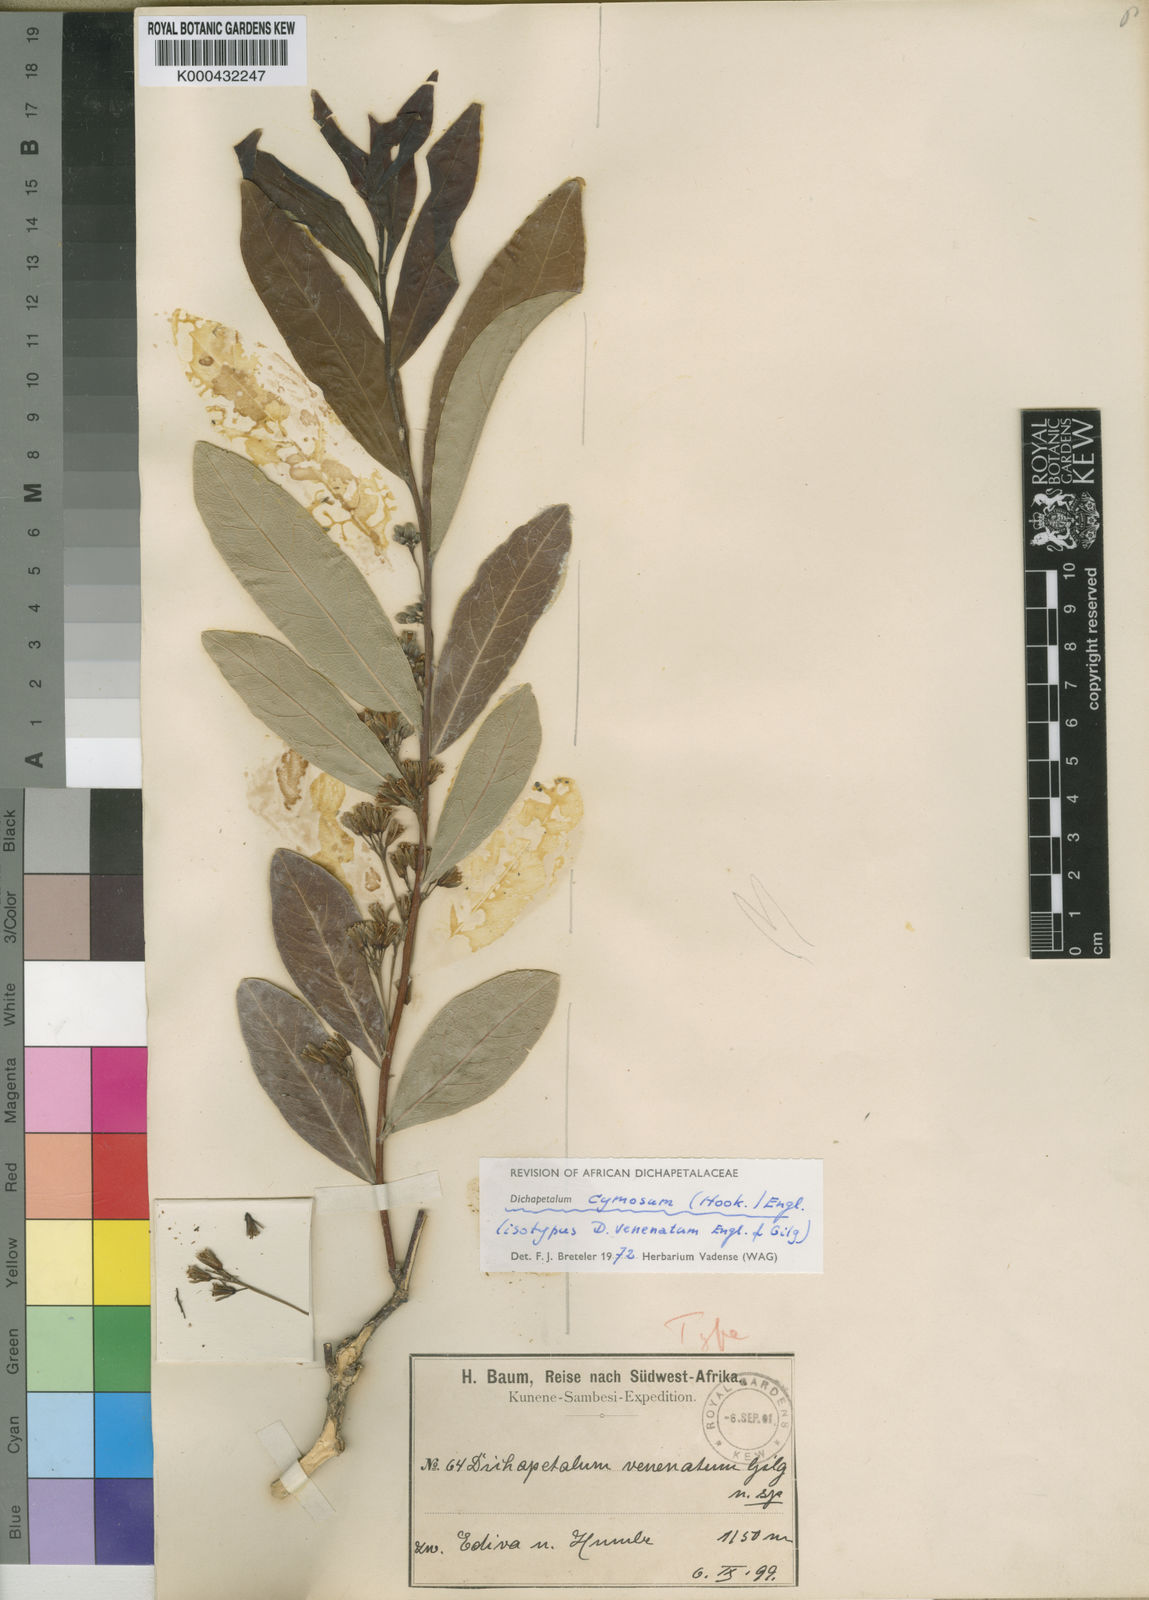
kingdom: Plantae
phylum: Tracheophyta
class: Magnoliopsida
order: Malpighiales
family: Dichapetalaceae
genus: Dichapetalum
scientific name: Dichapetalum cymosum
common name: Poison leaf
